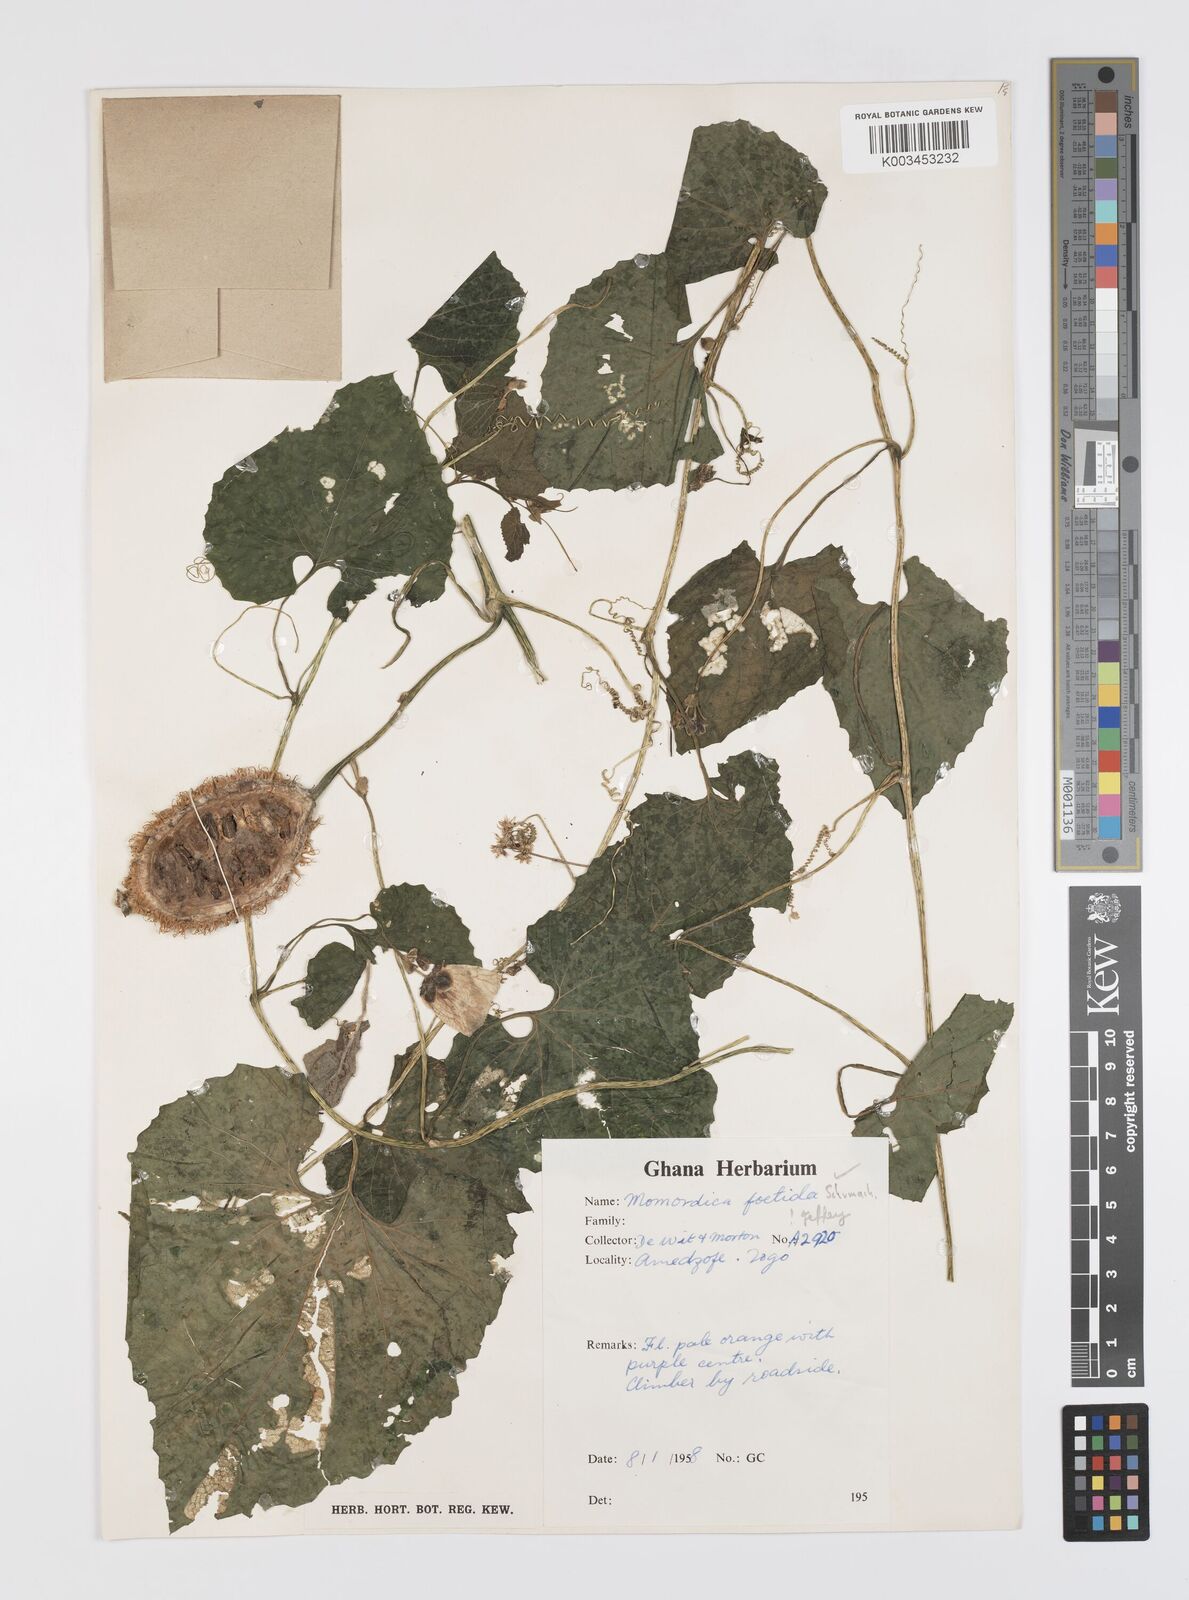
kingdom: Plantae
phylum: Tracheophyta
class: Magnoliopsida
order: Cucurbitales
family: Cucurbitaceae
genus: Momordica
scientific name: Momordica foetida
